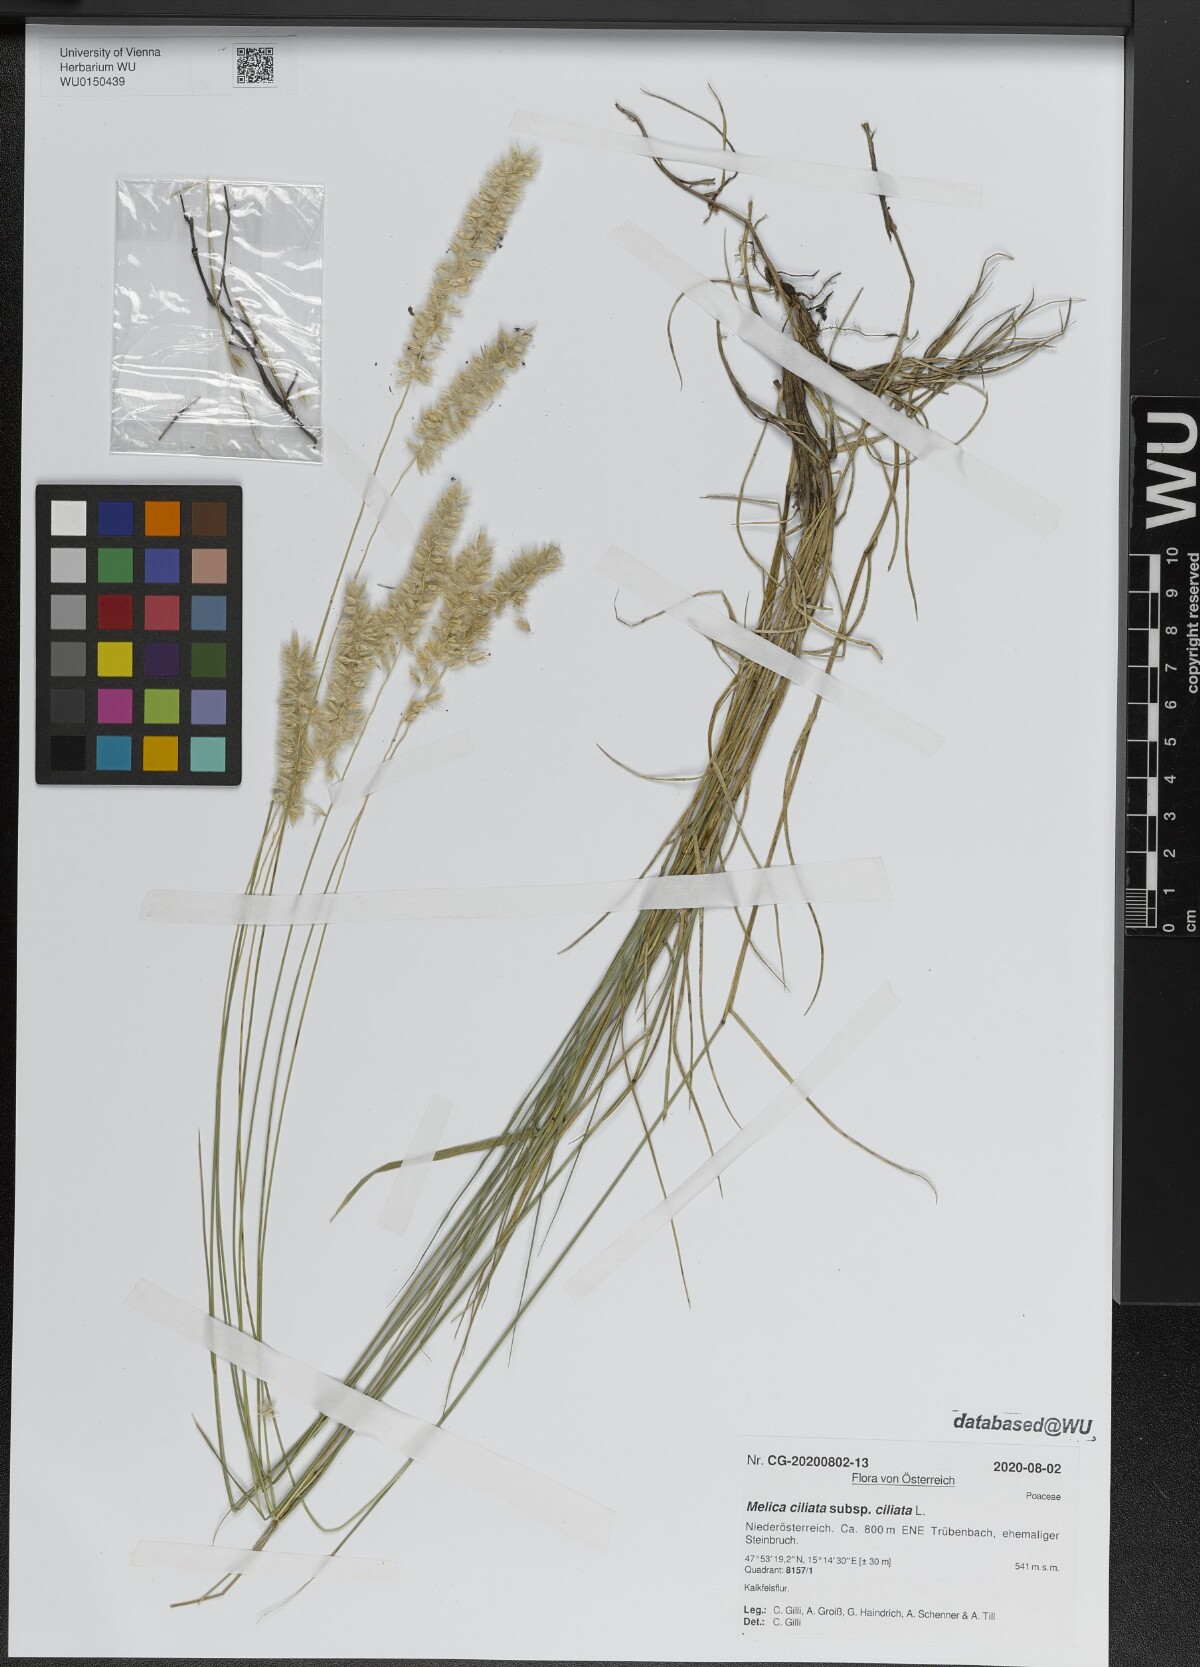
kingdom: Plantae
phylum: Tracheophyta
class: Liliopsida
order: Poales
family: Poaceae
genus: Melica
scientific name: Melica ciliata
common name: Hairy melicgrass
